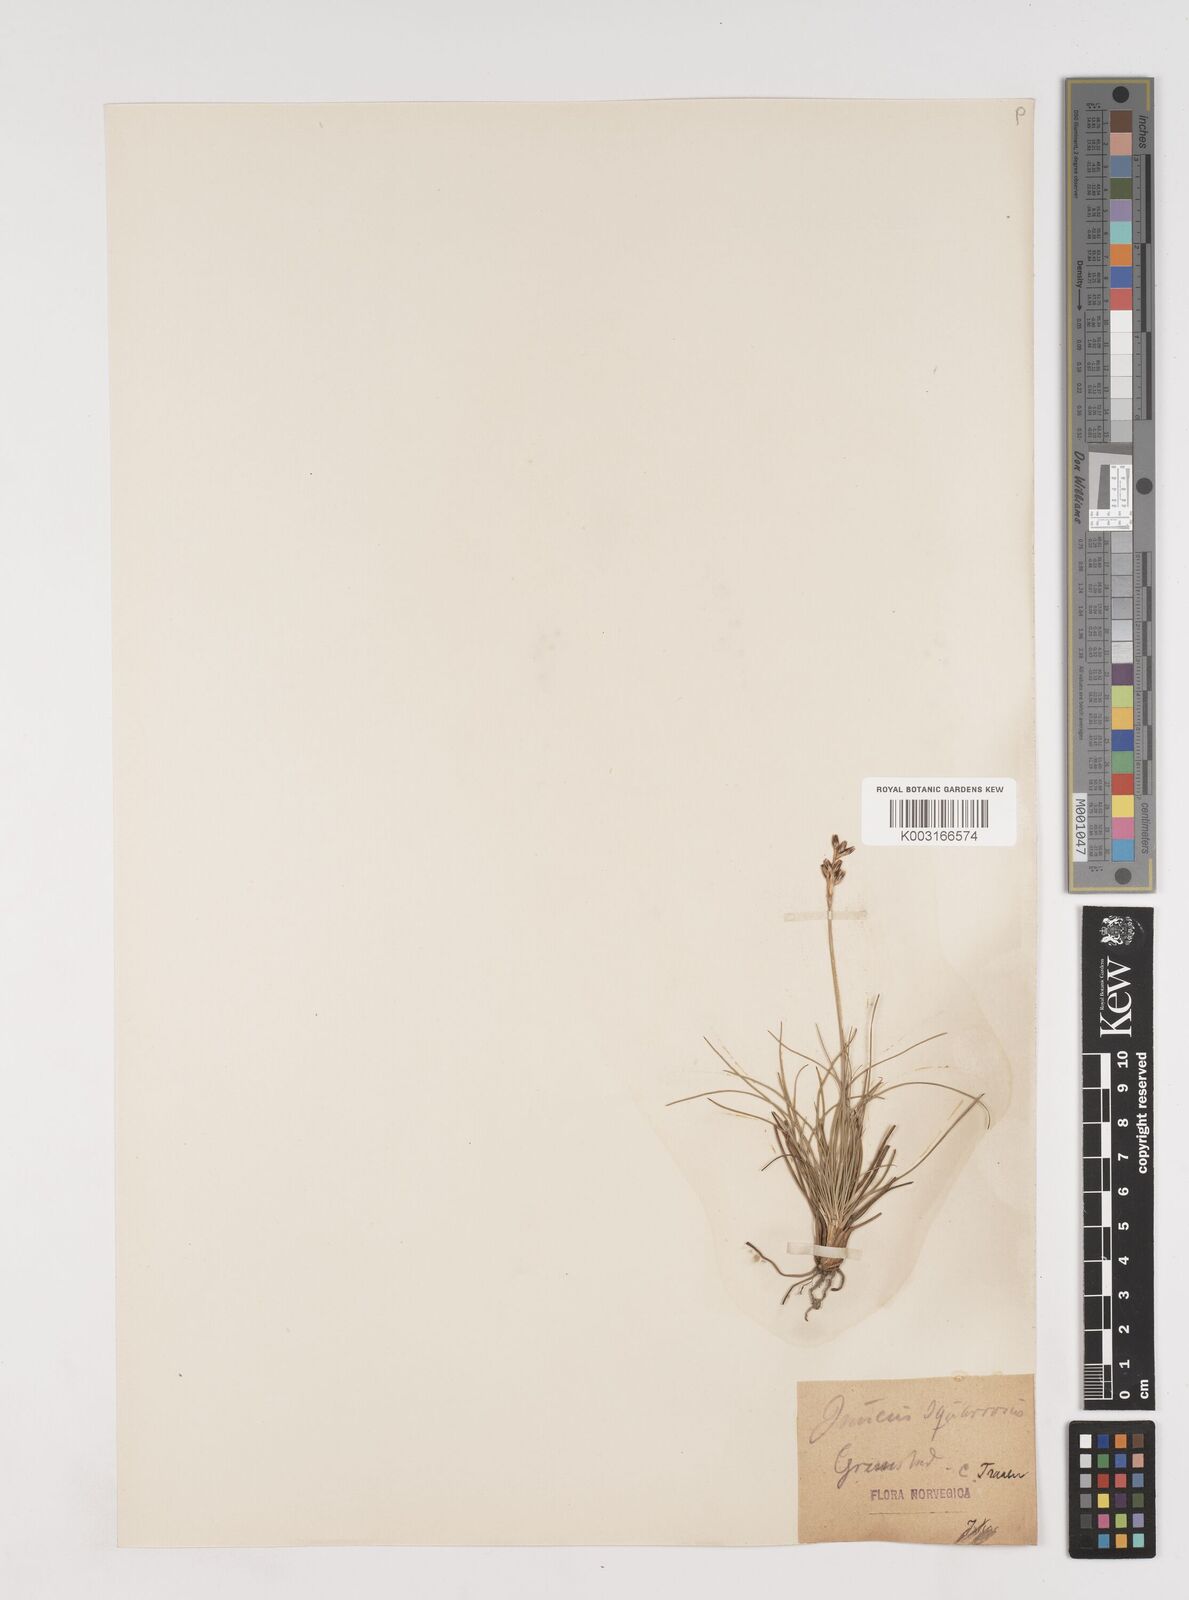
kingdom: Plantae
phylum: Tracheophyta
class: Liliopsida
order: Poales
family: Juncaceae
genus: Juncus
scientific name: Juncus squarrosus
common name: Heath rush
